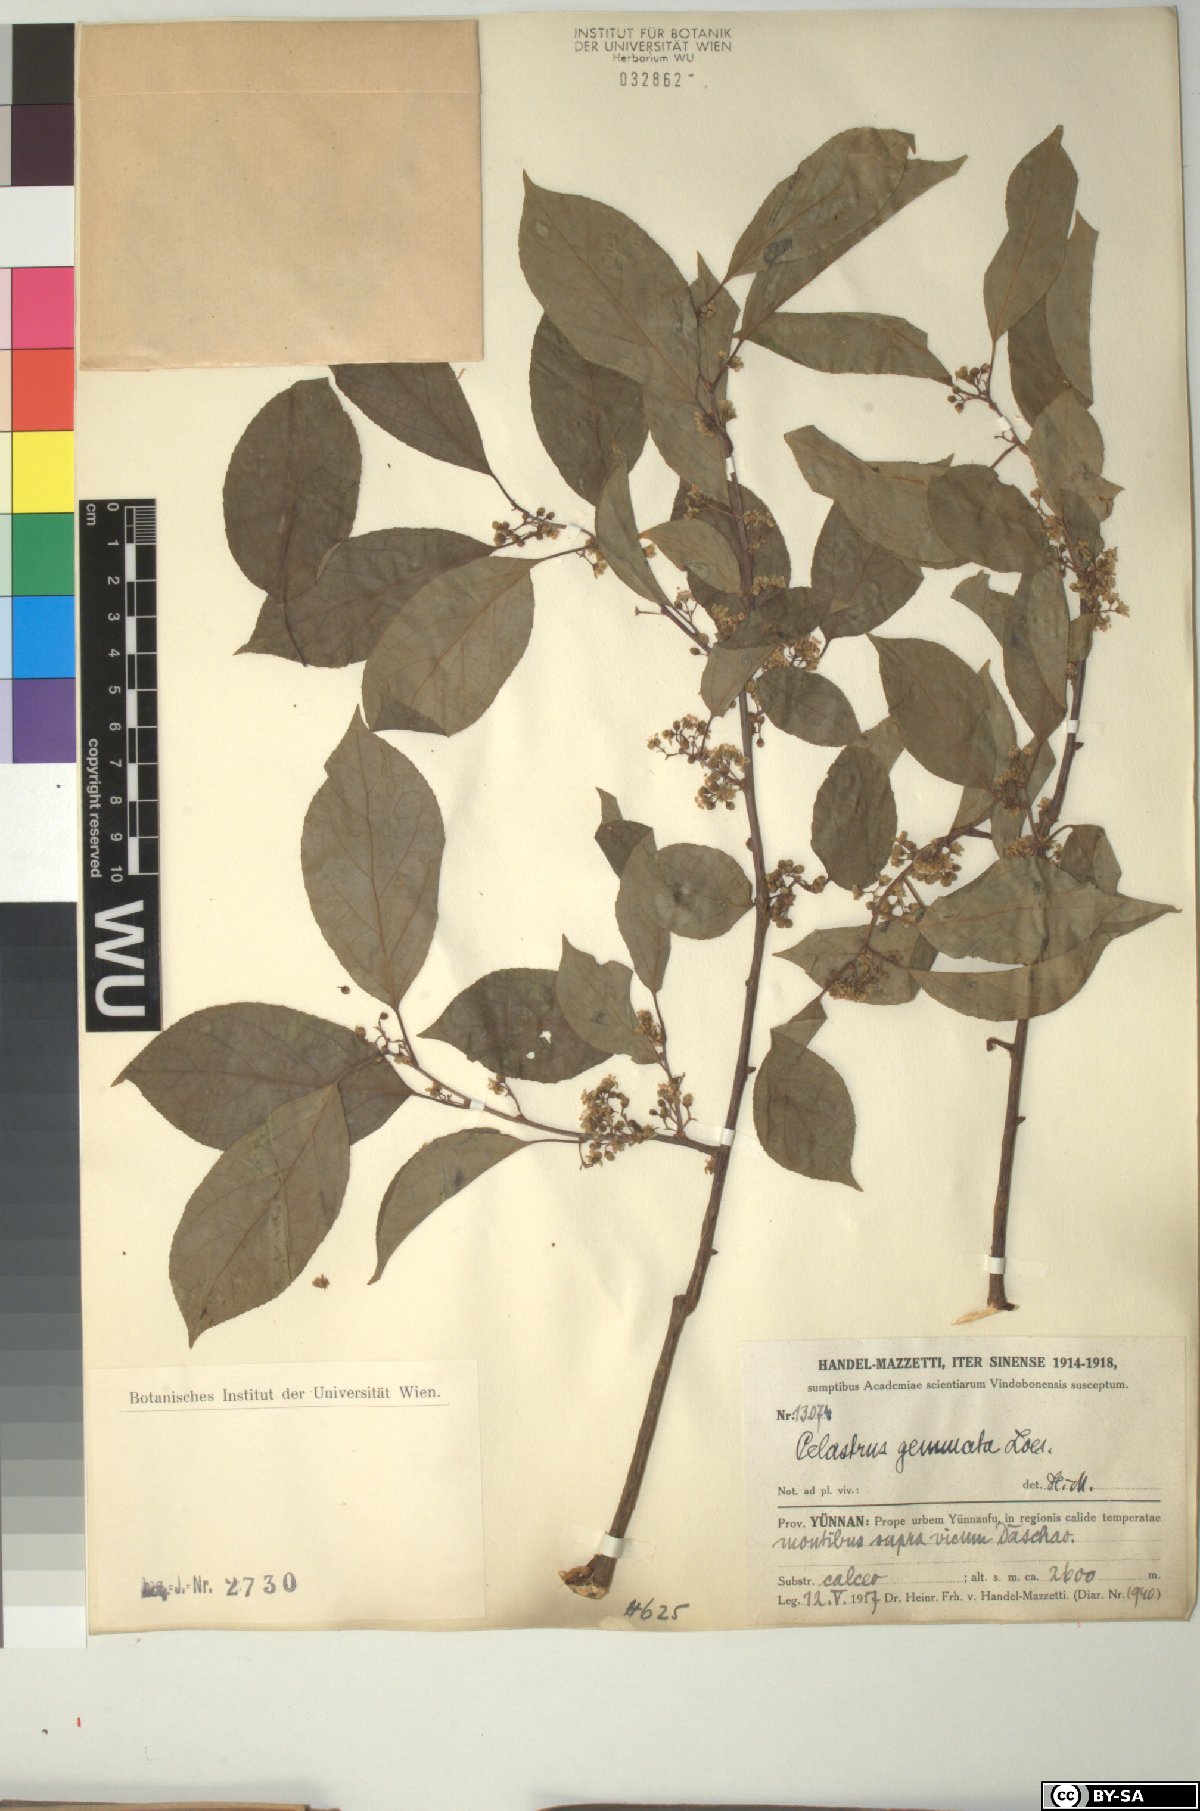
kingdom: Plantae
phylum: Tracheophyta
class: Magnoliopsida
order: Celastrales
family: Celastraceae
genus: Celastrus
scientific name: Celastrus gemmatus
